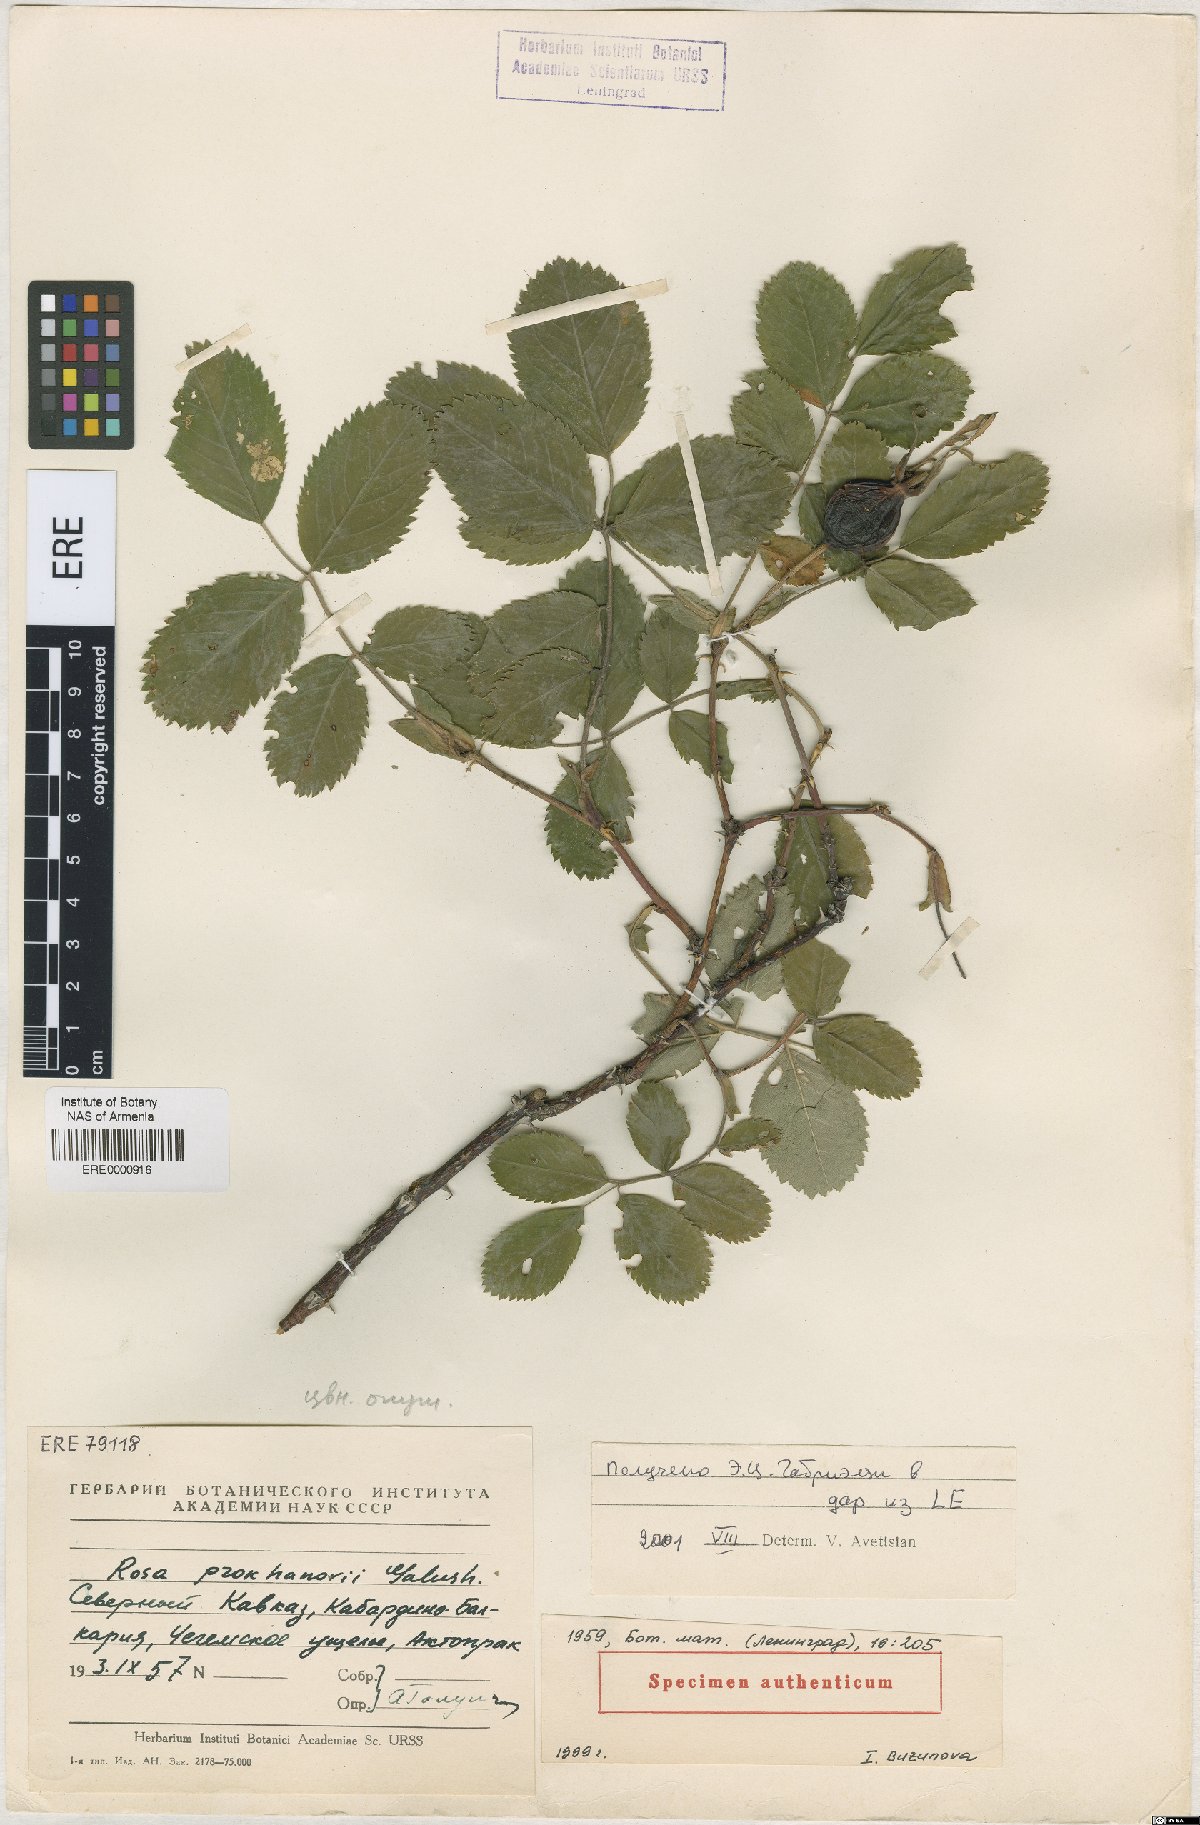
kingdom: Plantae
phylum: Tracheophyta
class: Magnoliopsida
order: Rosales
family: Rosaceae
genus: Rosa
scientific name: Rosa prokhanovii
